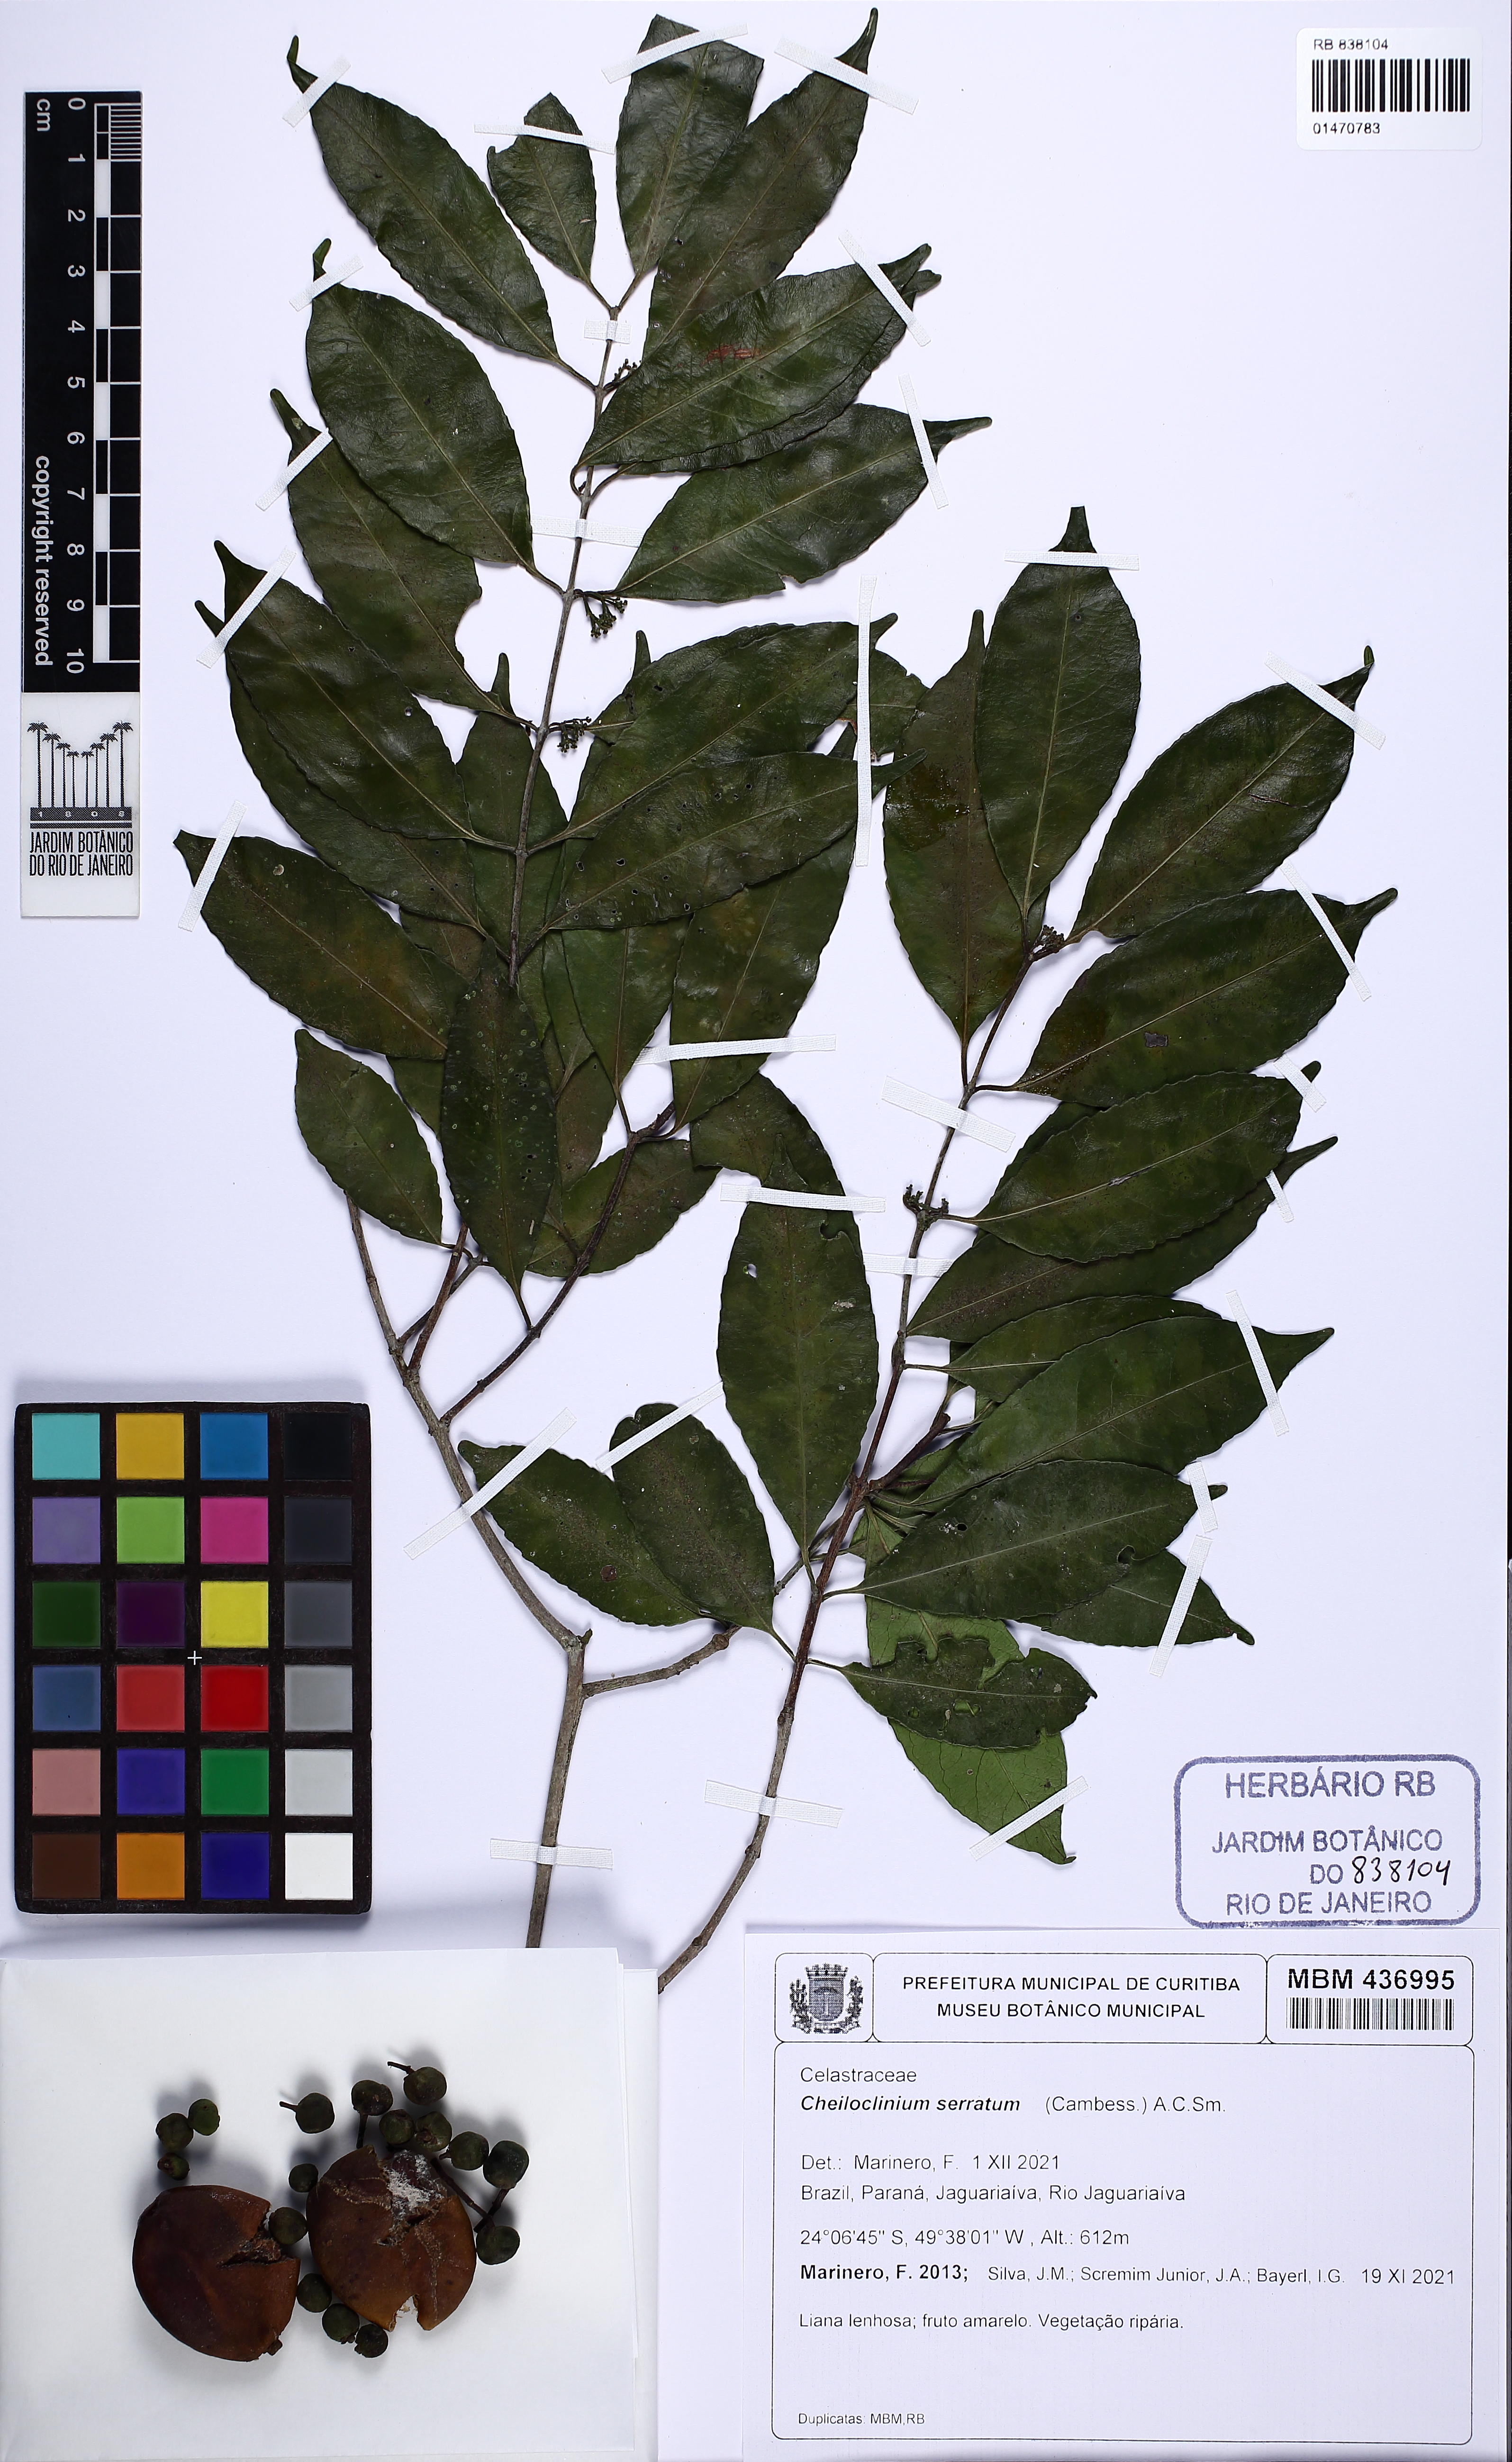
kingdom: Plantae
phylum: Tracheophyta
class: Magnoliopsida
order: Celastrales
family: Celastraceae
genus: Cheiloclinium
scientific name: Cheiloclinium serratum
